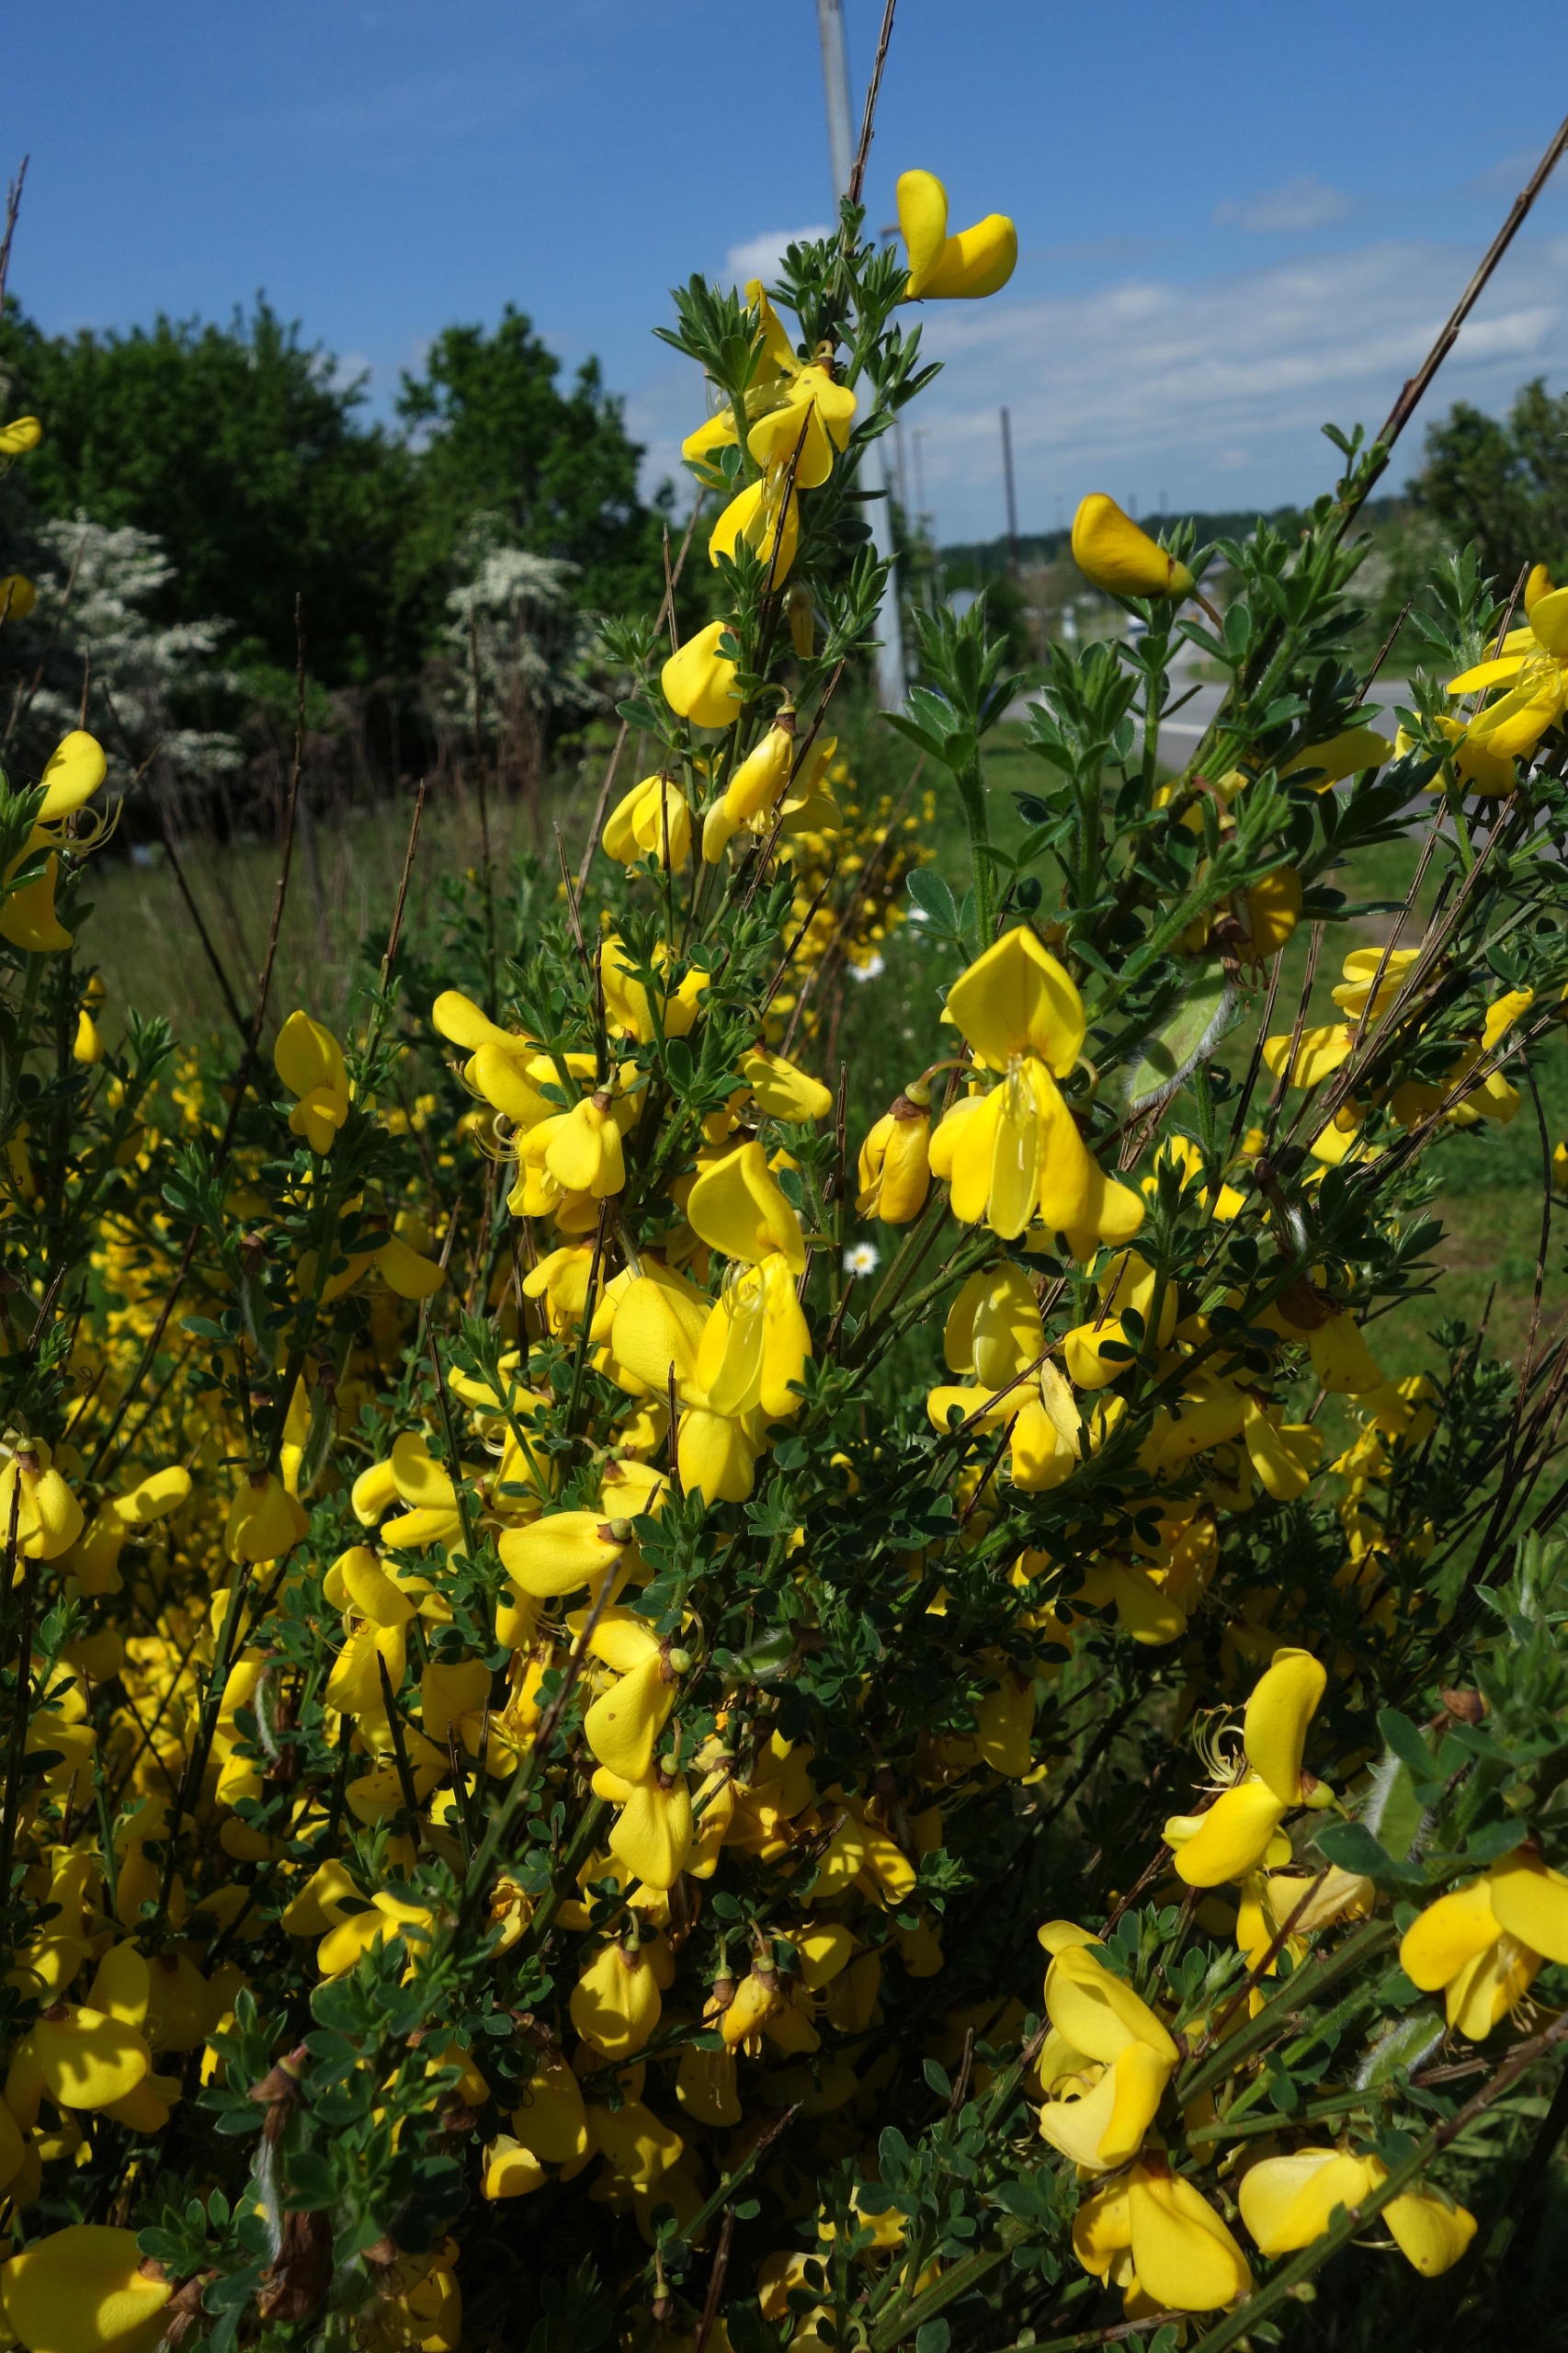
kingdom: Plantae
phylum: Tracheophyta
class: Magnoliopsida
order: Fabales
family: Fabaceae
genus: Cytisus
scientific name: Cytisus scoparius
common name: Almindelig gyvel
